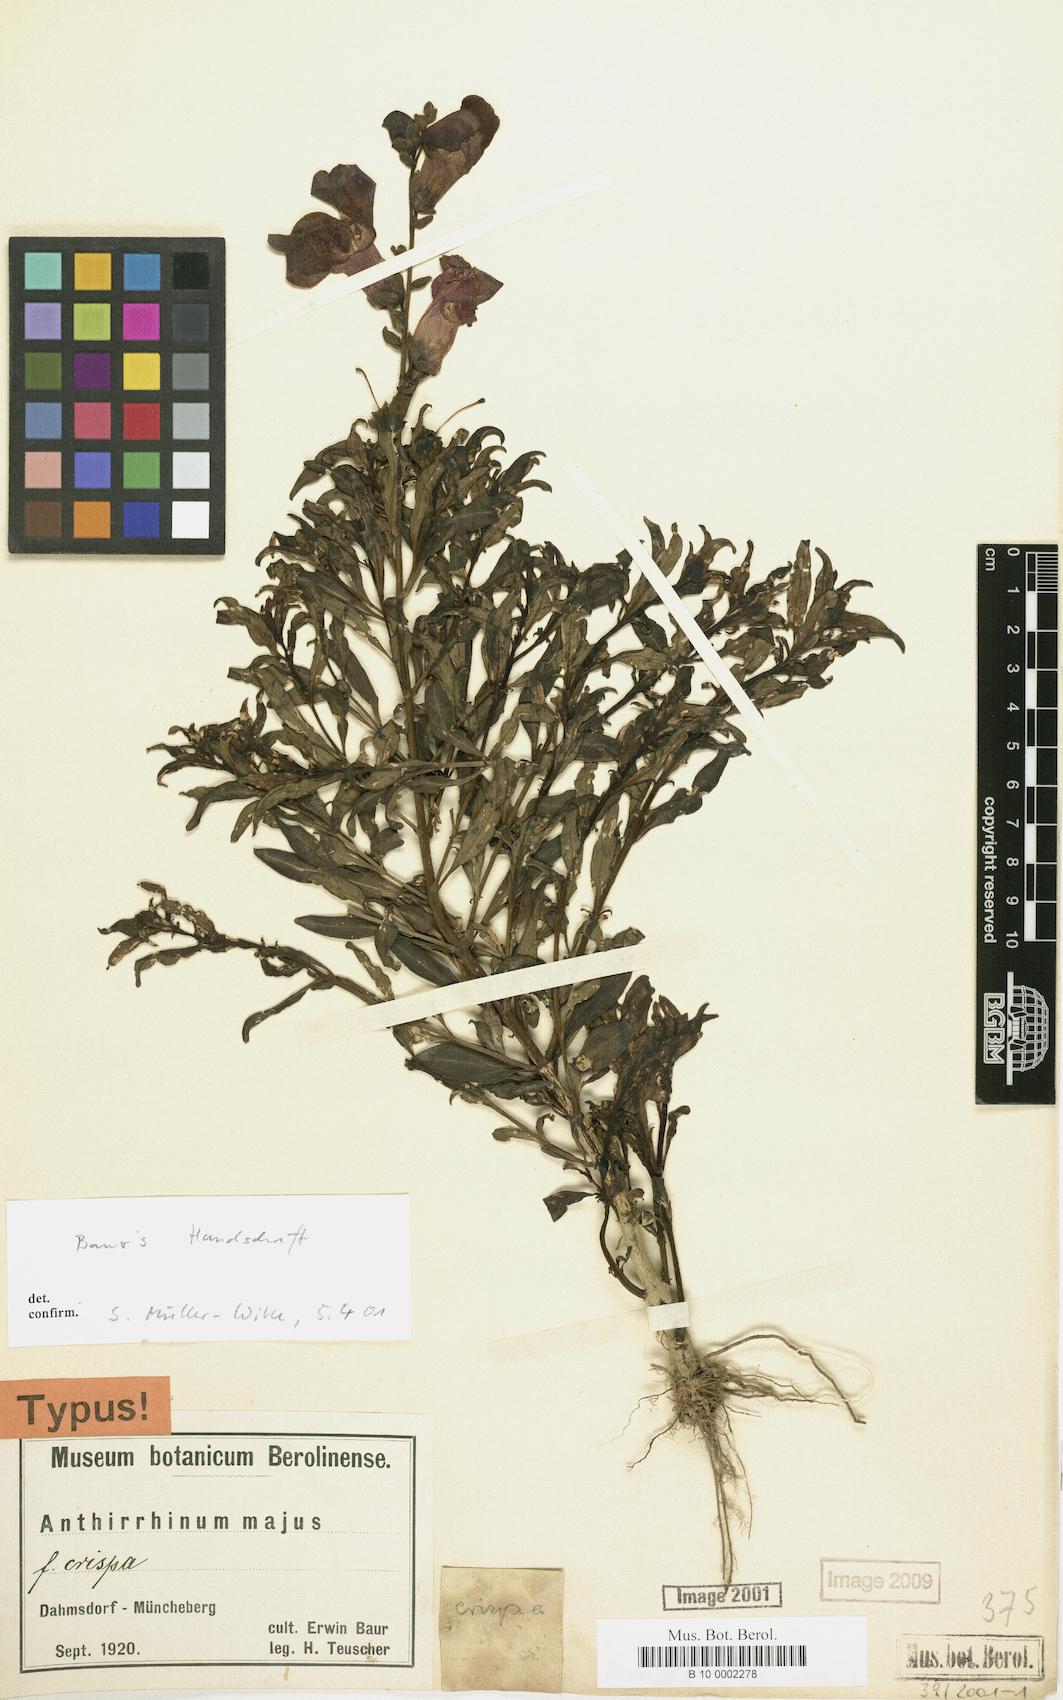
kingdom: Plantae
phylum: Tracheophyta
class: Magnoliopsida
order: Lamiales
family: Plantaginaceae
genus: Antirrhinum
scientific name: Antirrhinum majus
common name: Snapdragon
